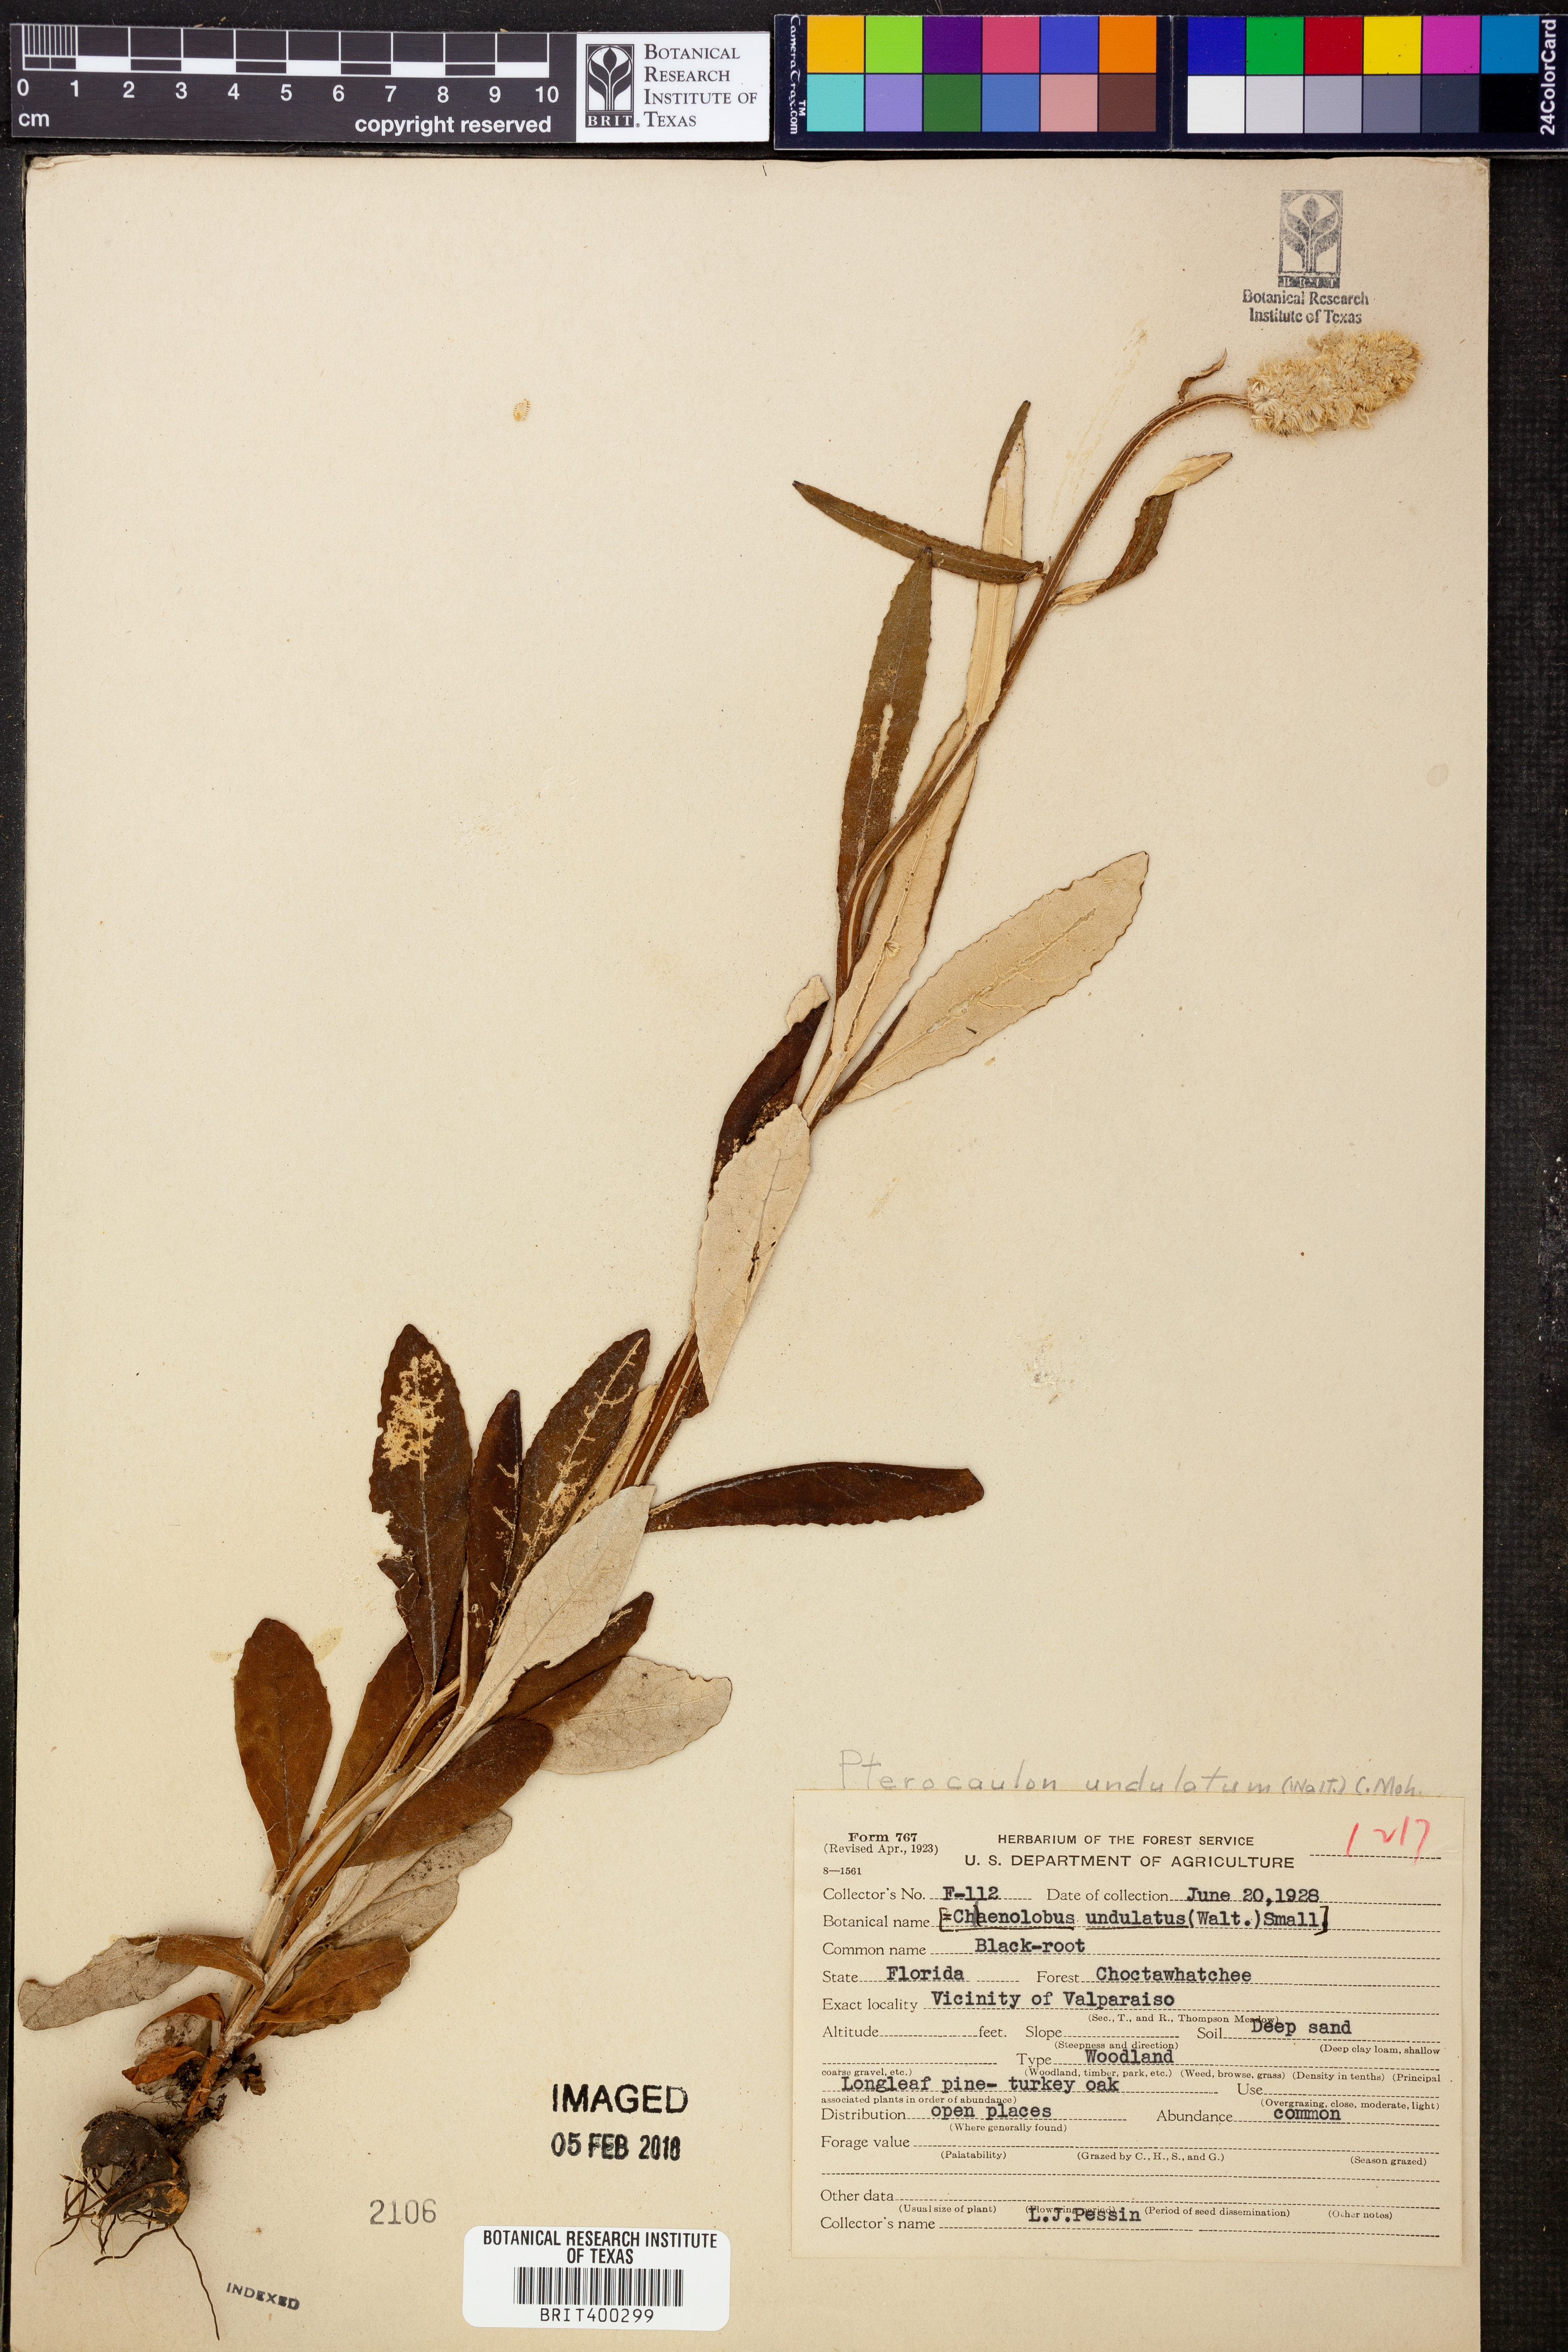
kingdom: Plantae
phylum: Tracheophyta
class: Magnoliopsida
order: Asterales
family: Asteraceae
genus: Pterocaulon
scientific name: Pterocaulon pycnostachyum
